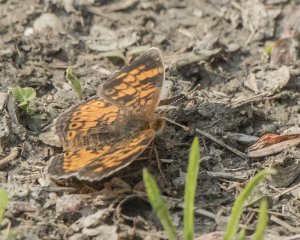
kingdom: Animalia
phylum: Arthropoda
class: Insecta
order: Lepidoptera
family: Nymphalidae
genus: Phyciodes
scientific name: Phyciodes tharos
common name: Northern Crescent
